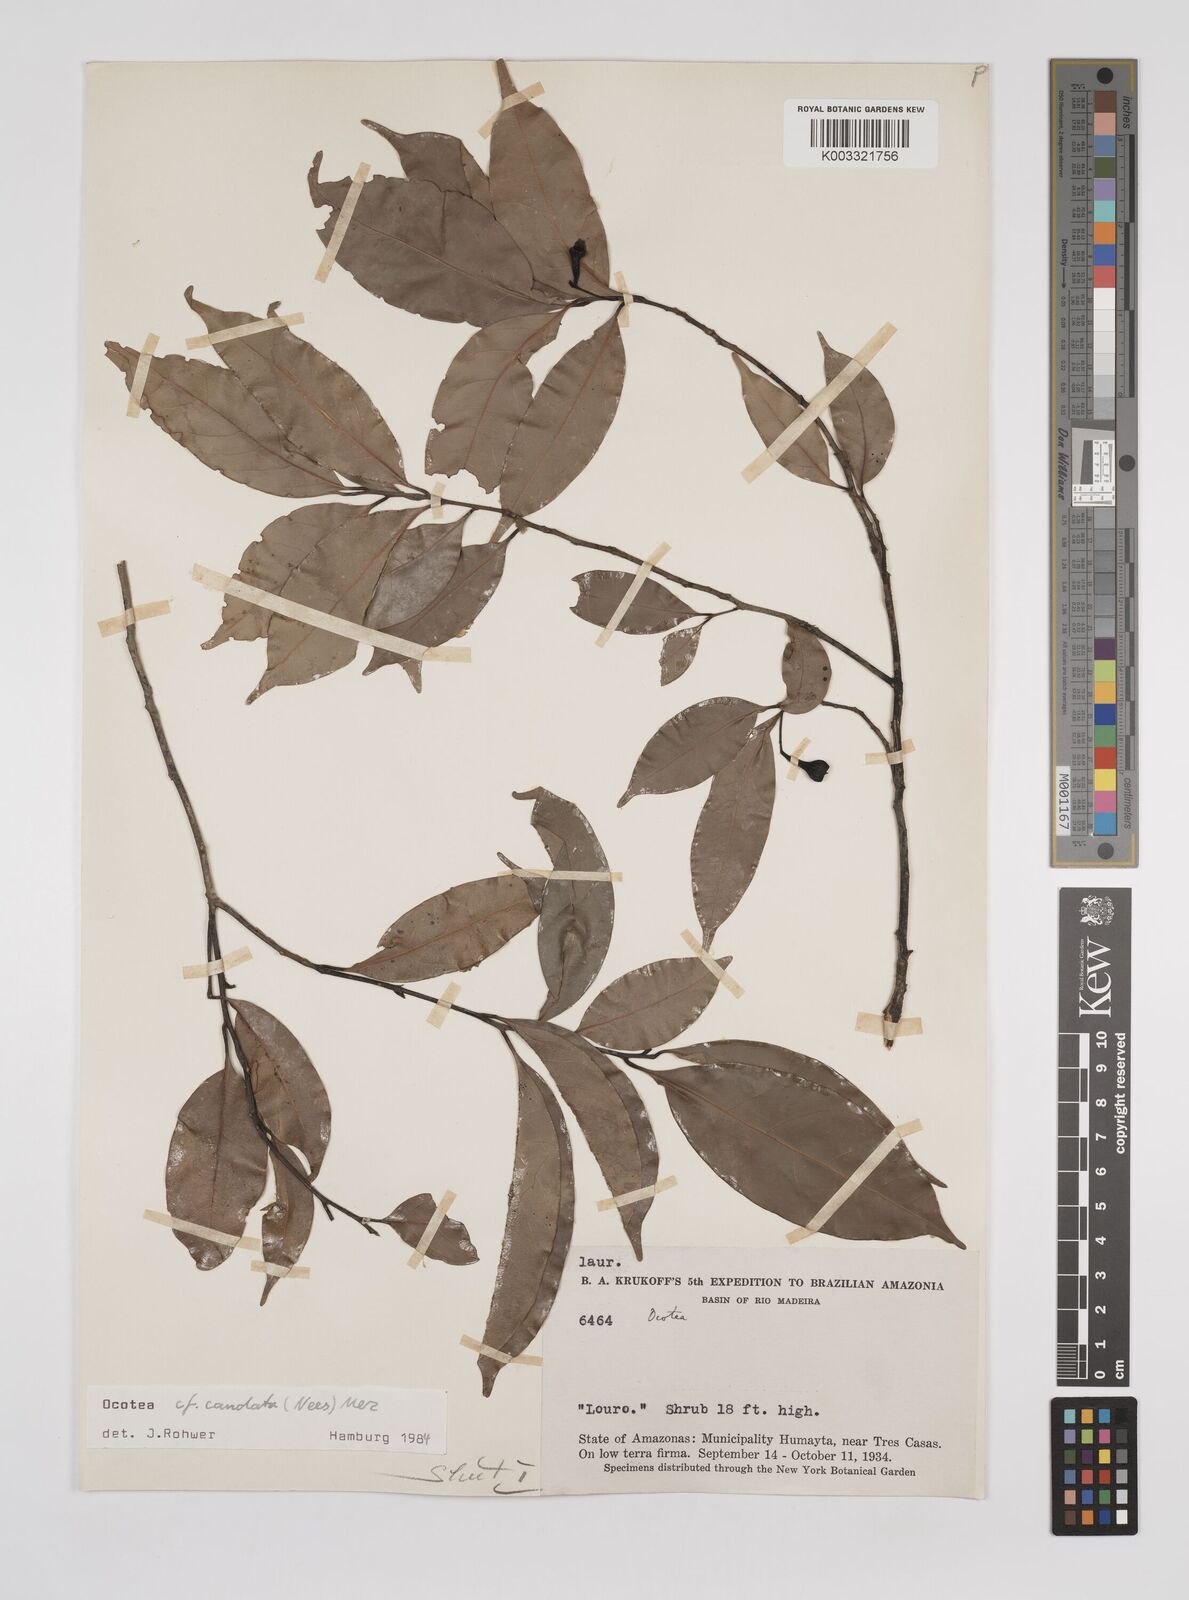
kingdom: Plantae
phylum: Tracheophyta
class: Magnoliopsida
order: Laurales
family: Lauraceae
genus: Ocotea
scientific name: Ocotea leptobotra
